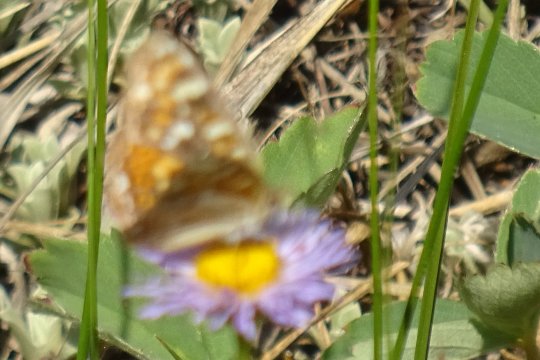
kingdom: Animalia
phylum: Arthropoda
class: Insecta
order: Lepidoptera
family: Nymphalidae
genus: Phyciodes
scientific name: Phyciodes tharos
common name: Field Crescent
